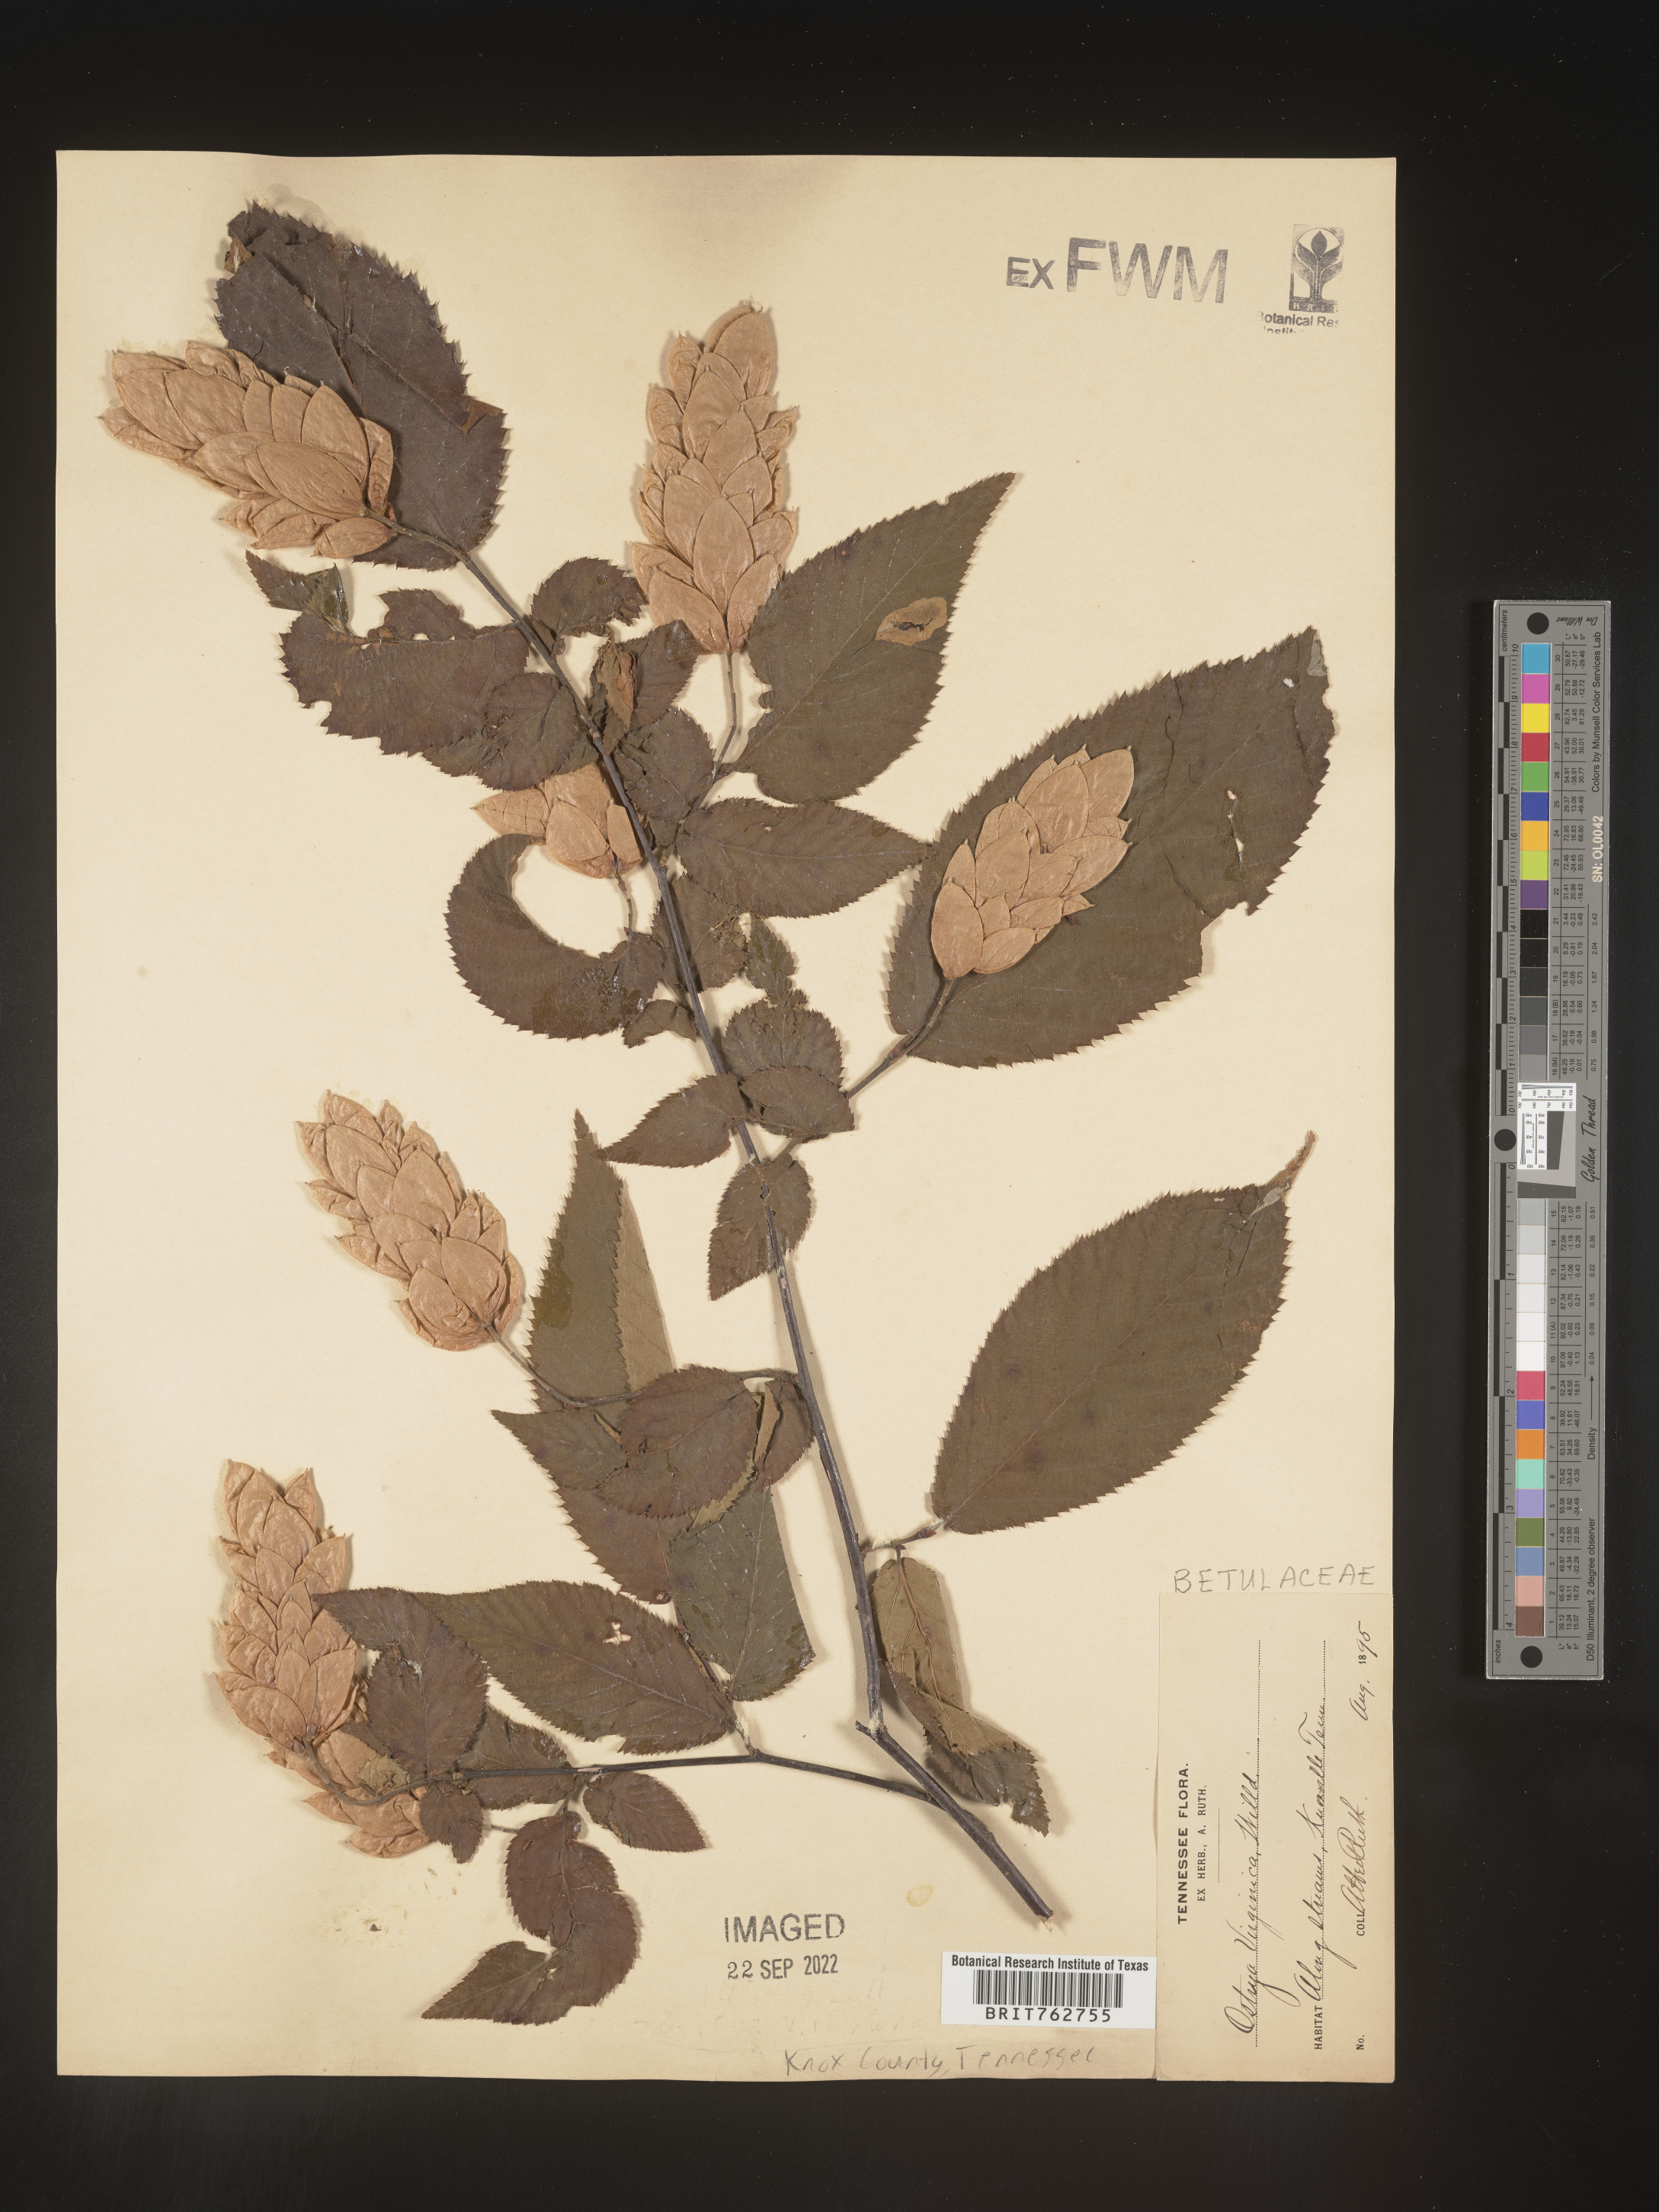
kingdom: Plantae
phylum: Tracheophyta
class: Magnoliopsida
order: Fagales
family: Betulaceae
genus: Ostrya
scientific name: Ostrya virginiana
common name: Ironwood
